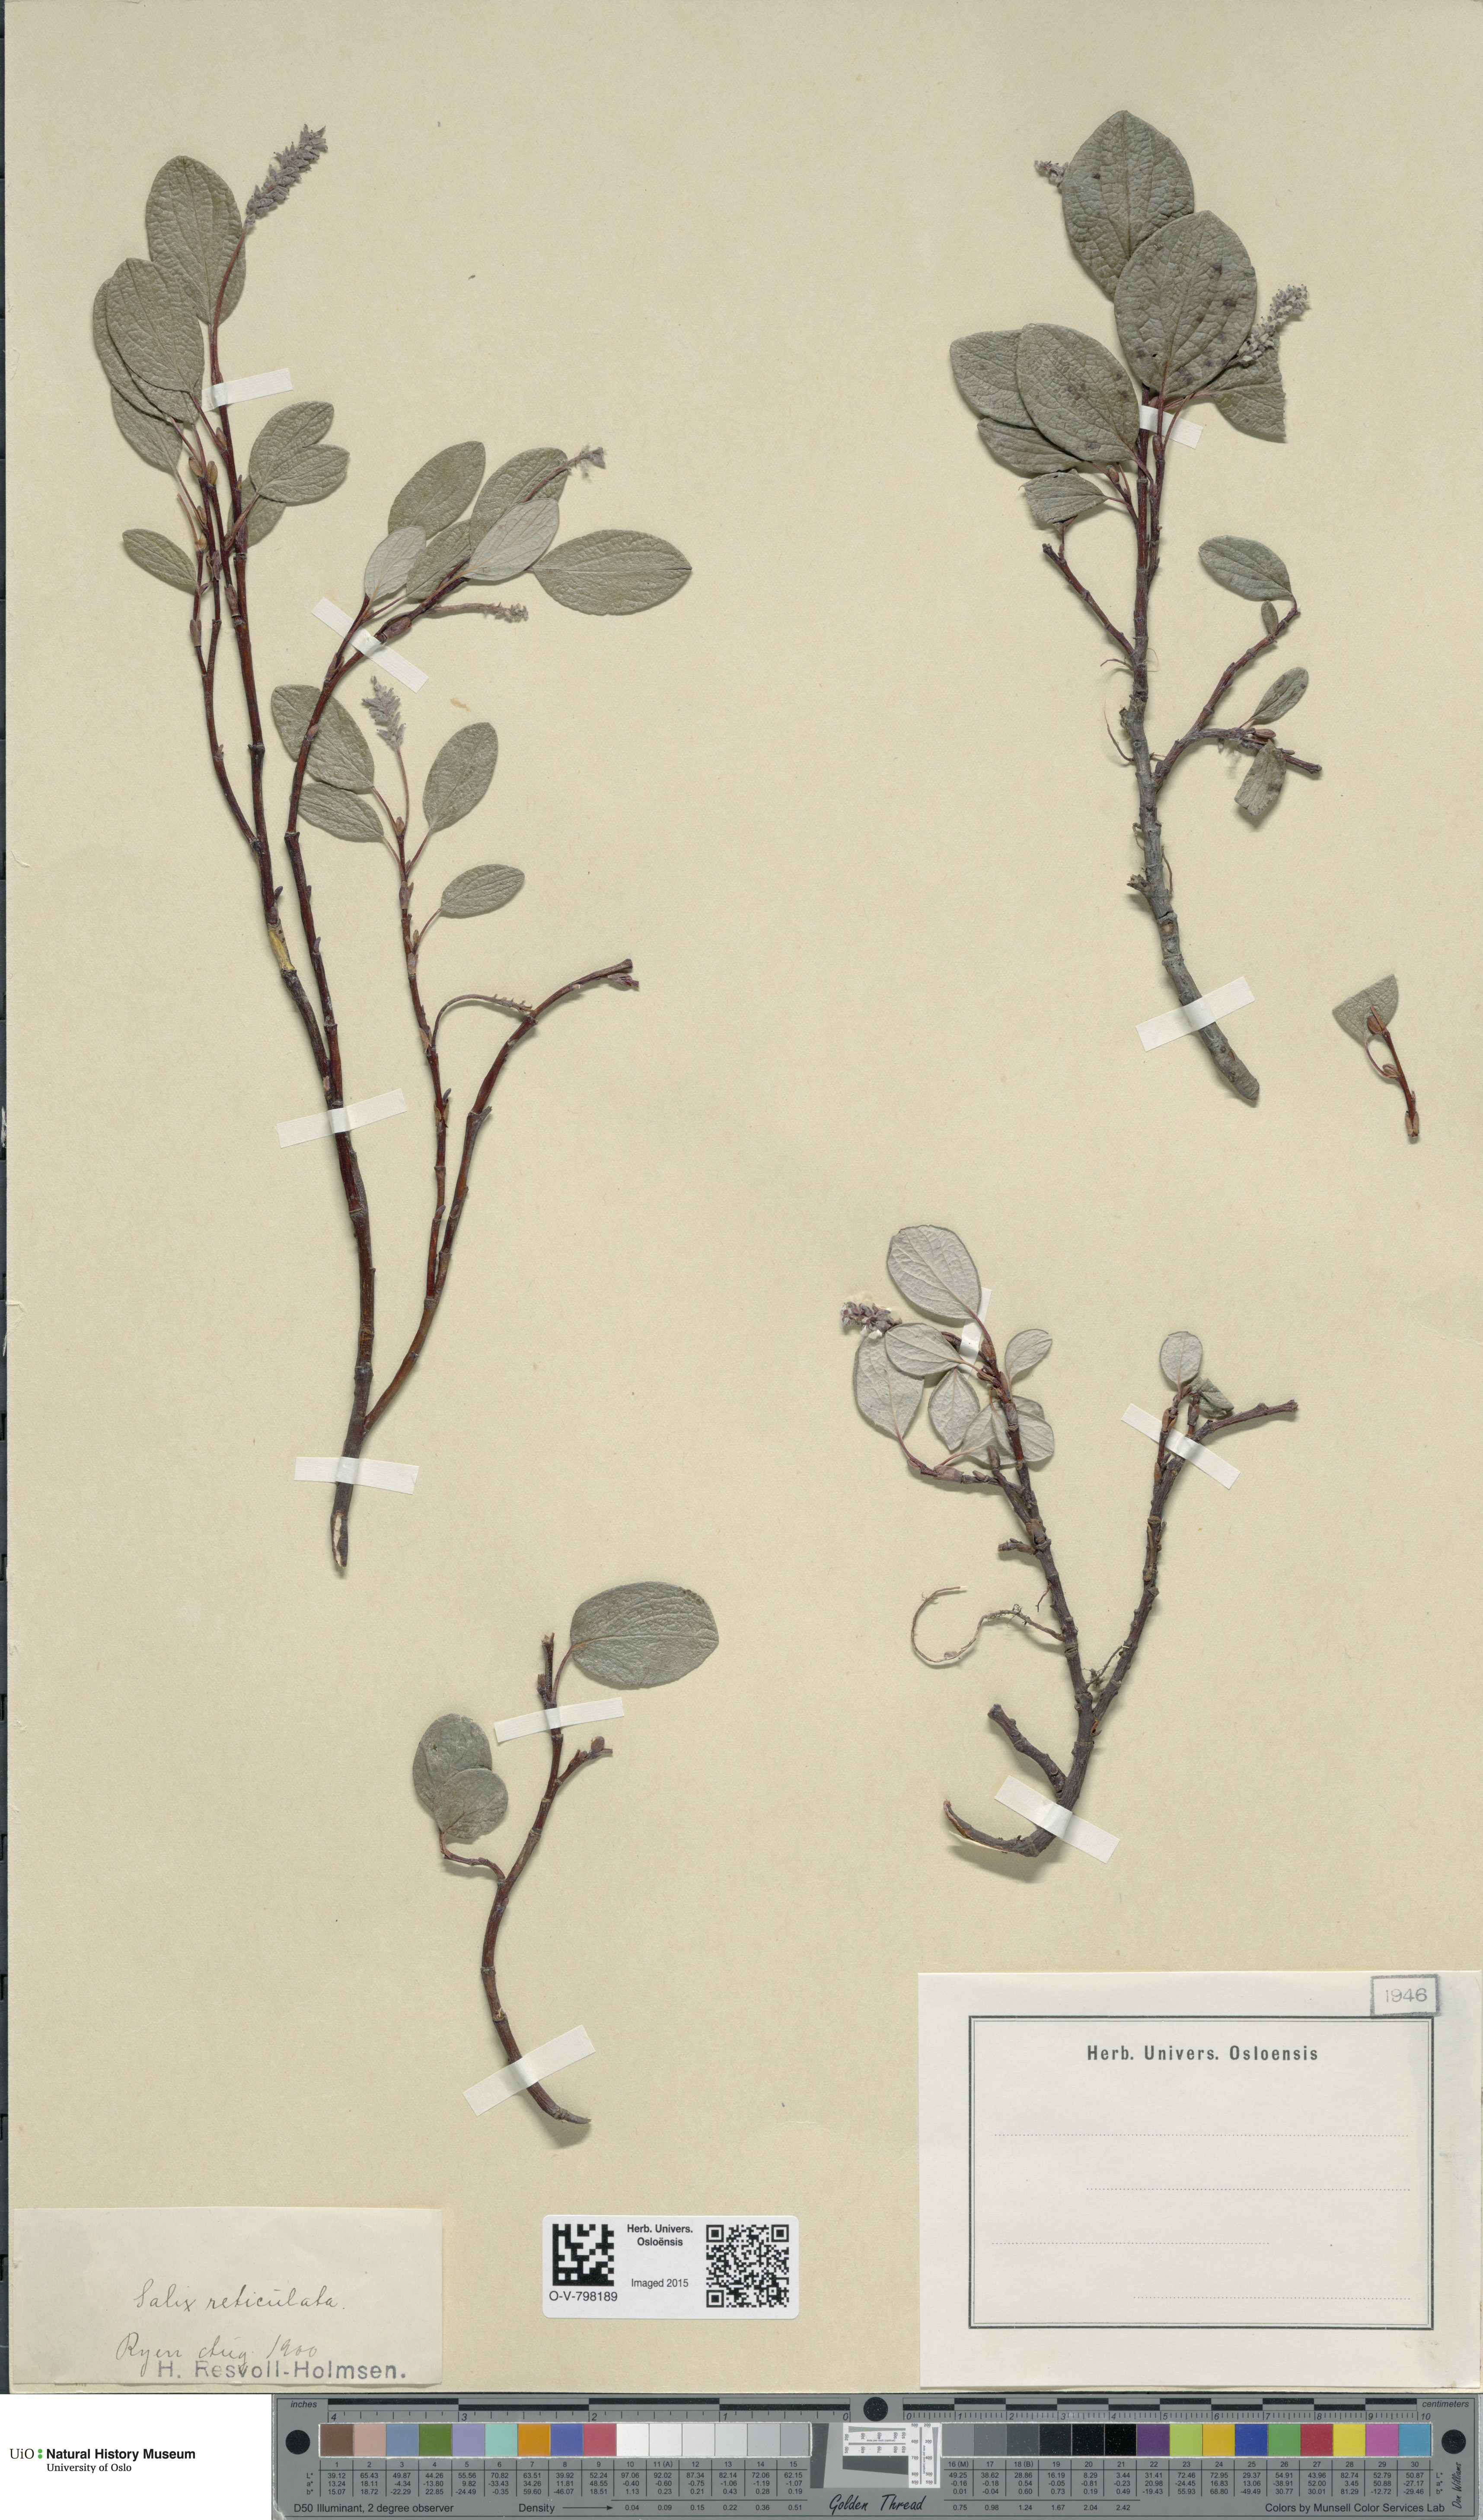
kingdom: Plantae
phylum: Tracheophyta
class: Magnoliopsida
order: Malpighiales
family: Salicaceae
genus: Salix
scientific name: Salix reticulata
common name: Net-leaved willow
